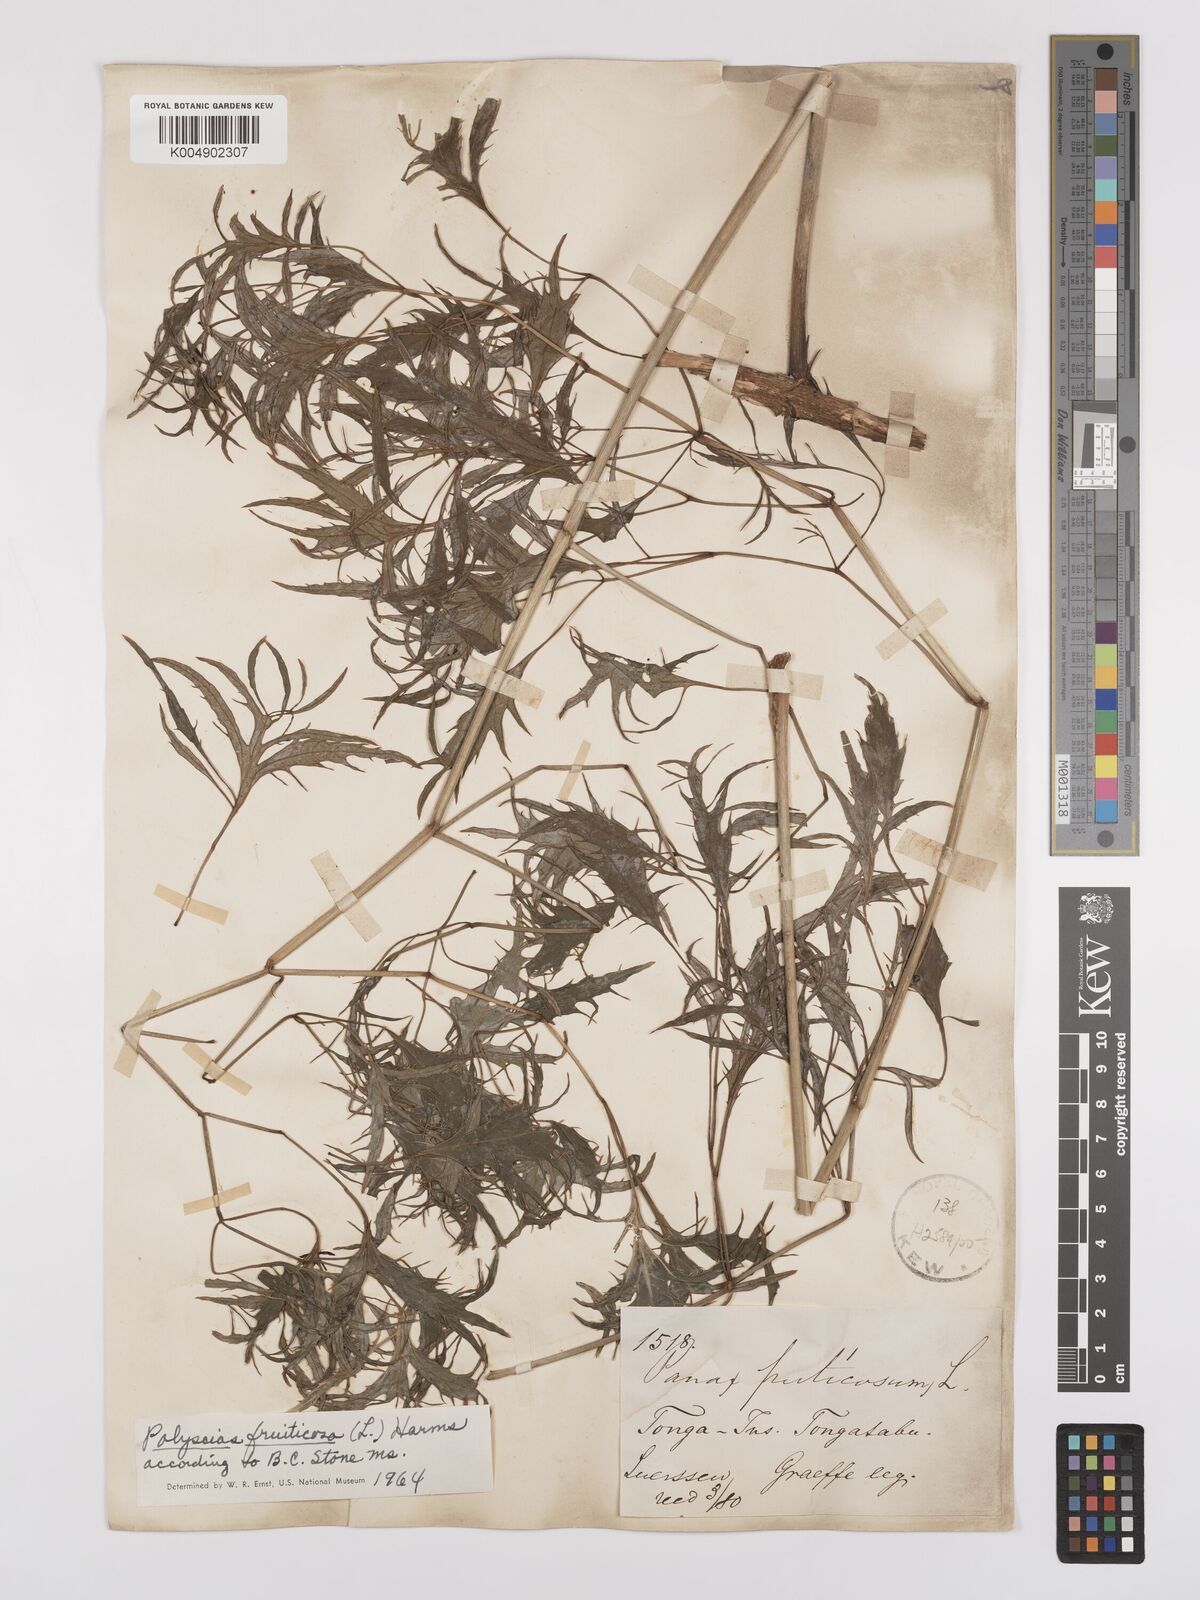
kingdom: Plantae
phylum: Tracheophyta
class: Magnoliopsida
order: Apiales
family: Araliaceae
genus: Polyscias
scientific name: Polyscias fruticosa
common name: Teatree
